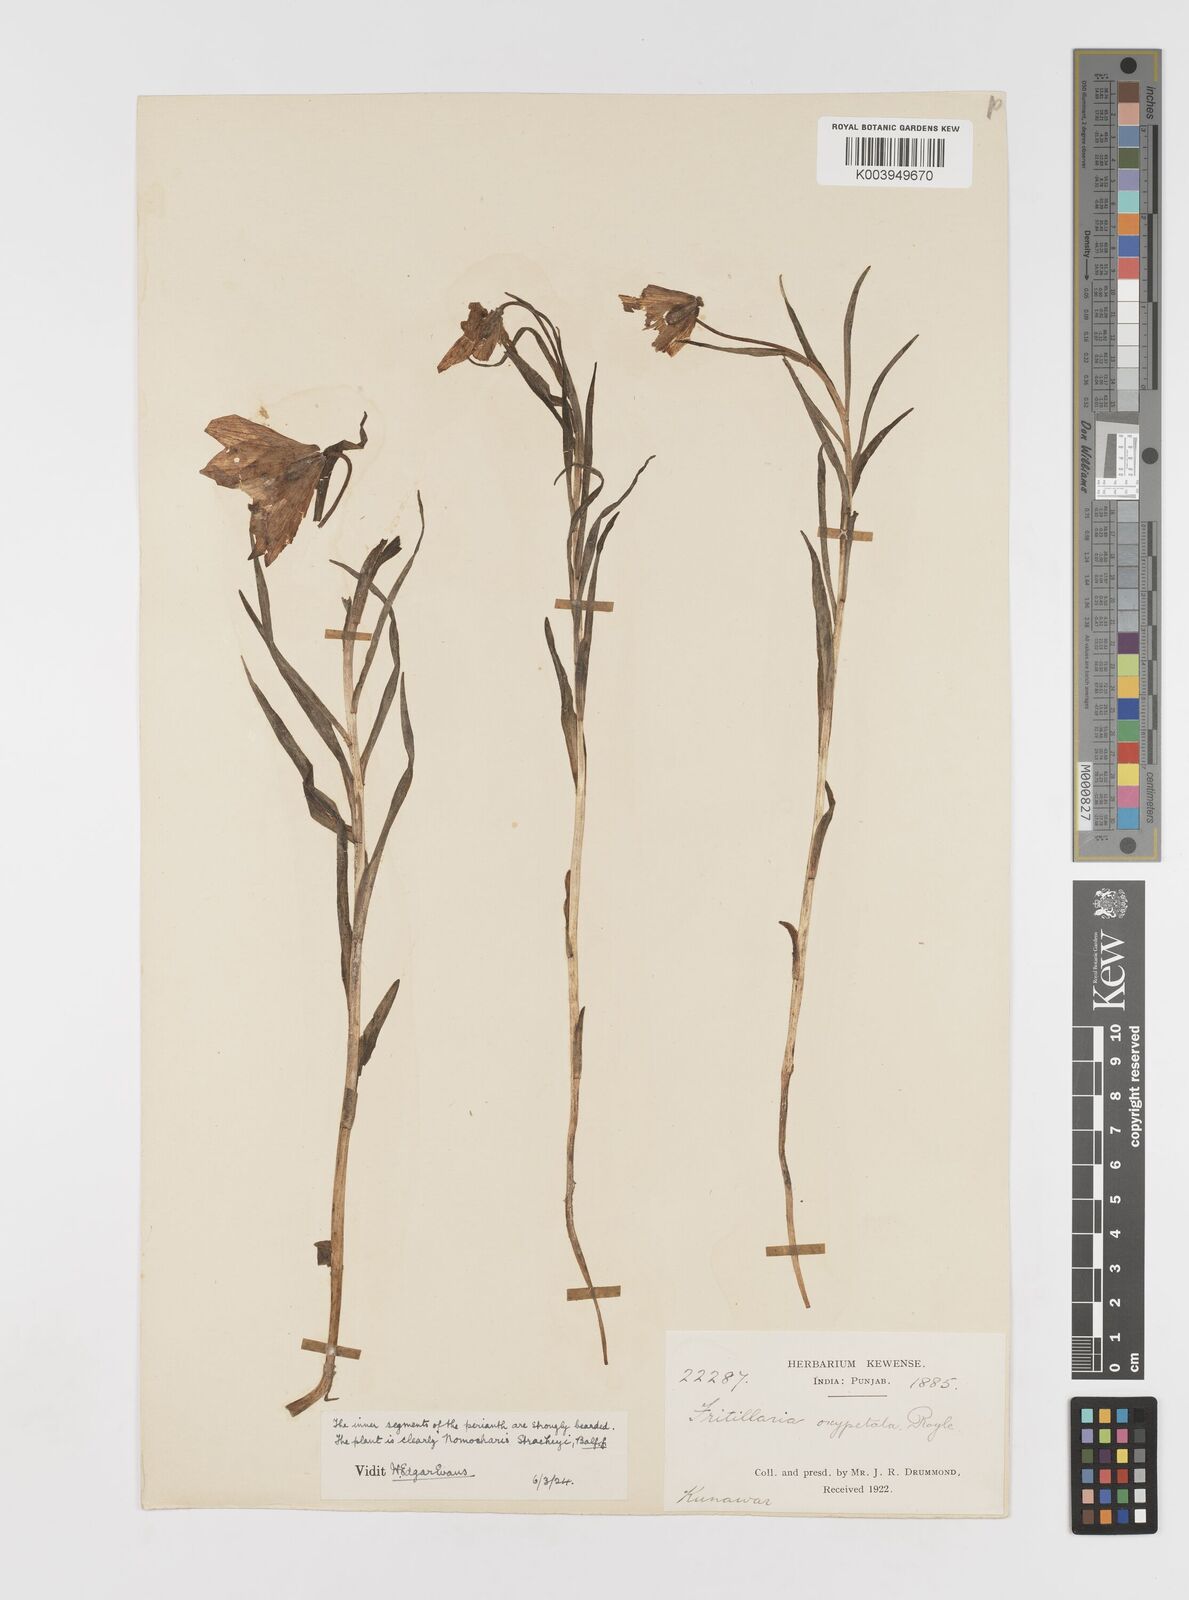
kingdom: Plantae
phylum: Tracheophyta
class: Liliopsida
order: Liliales
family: Liliaceae
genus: Lilium
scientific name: Lilium nanum
